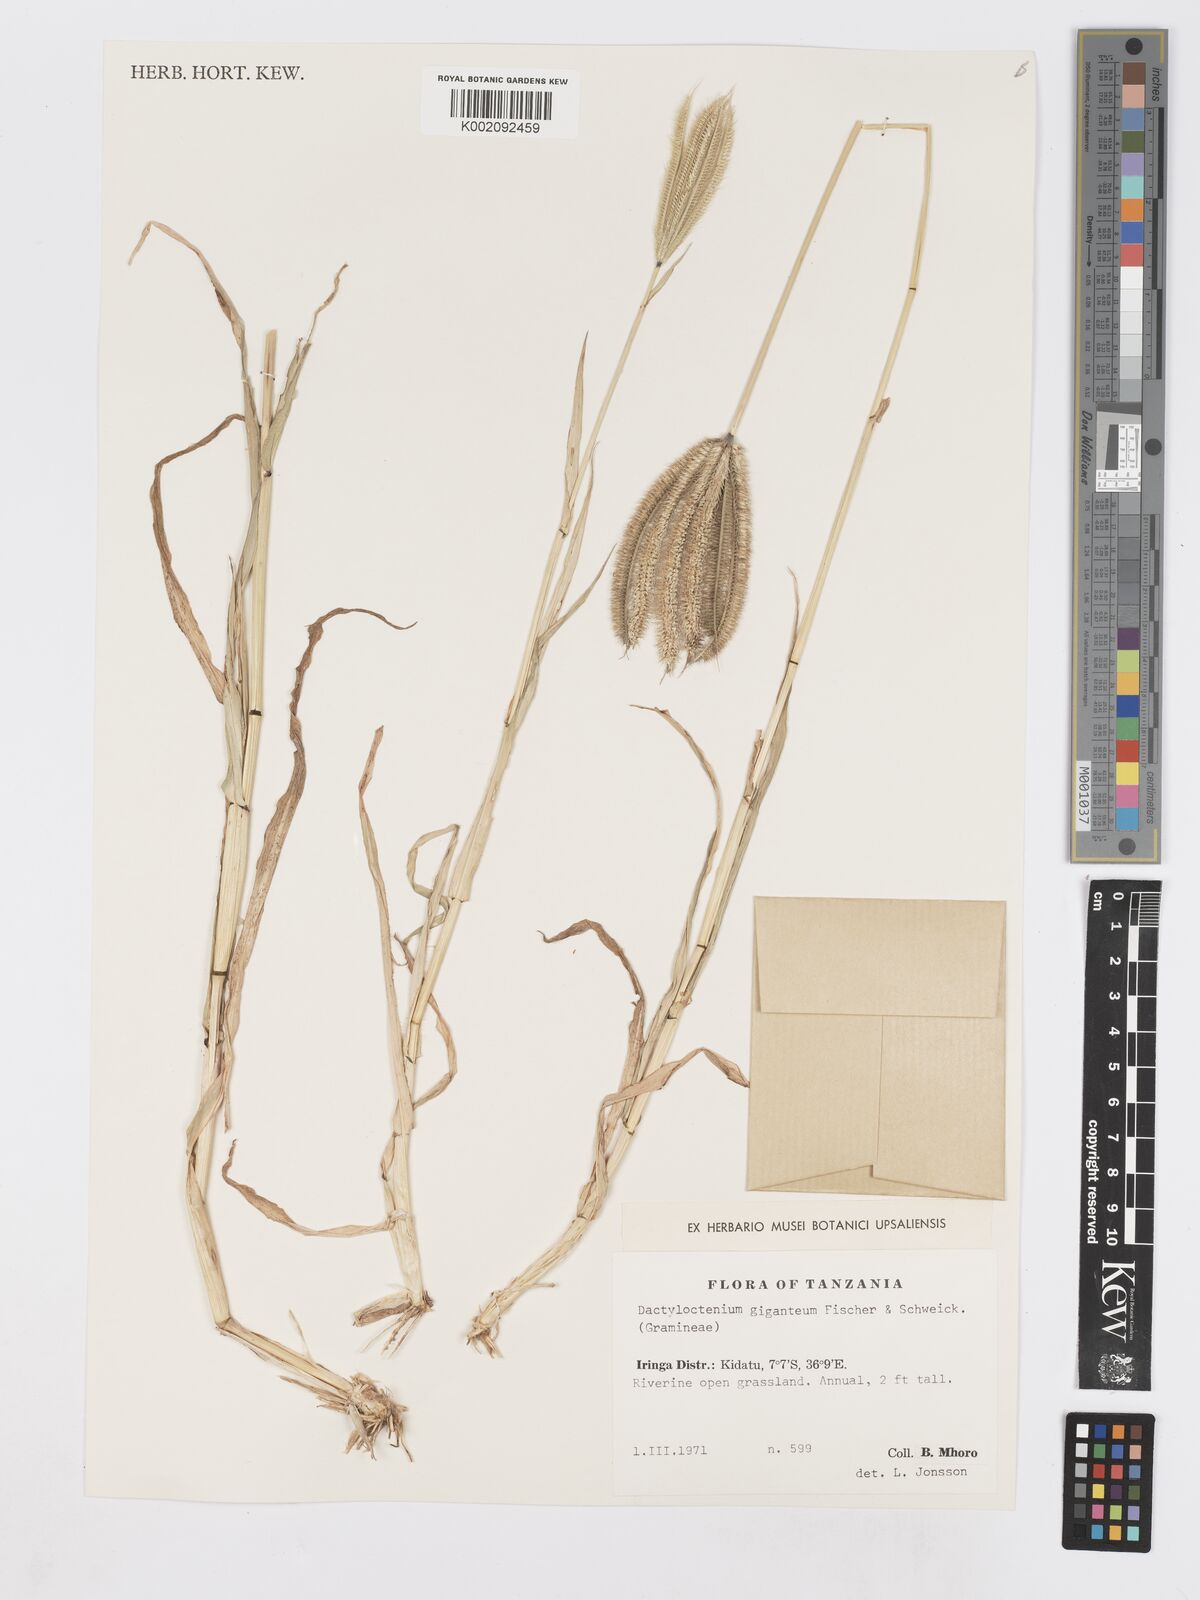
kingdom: Plantae
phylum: Tracheophyta
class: Liliopsida
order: Poales
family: Poaceae
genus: Dactyloctenium
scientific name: Dactyloctenium giganteum
